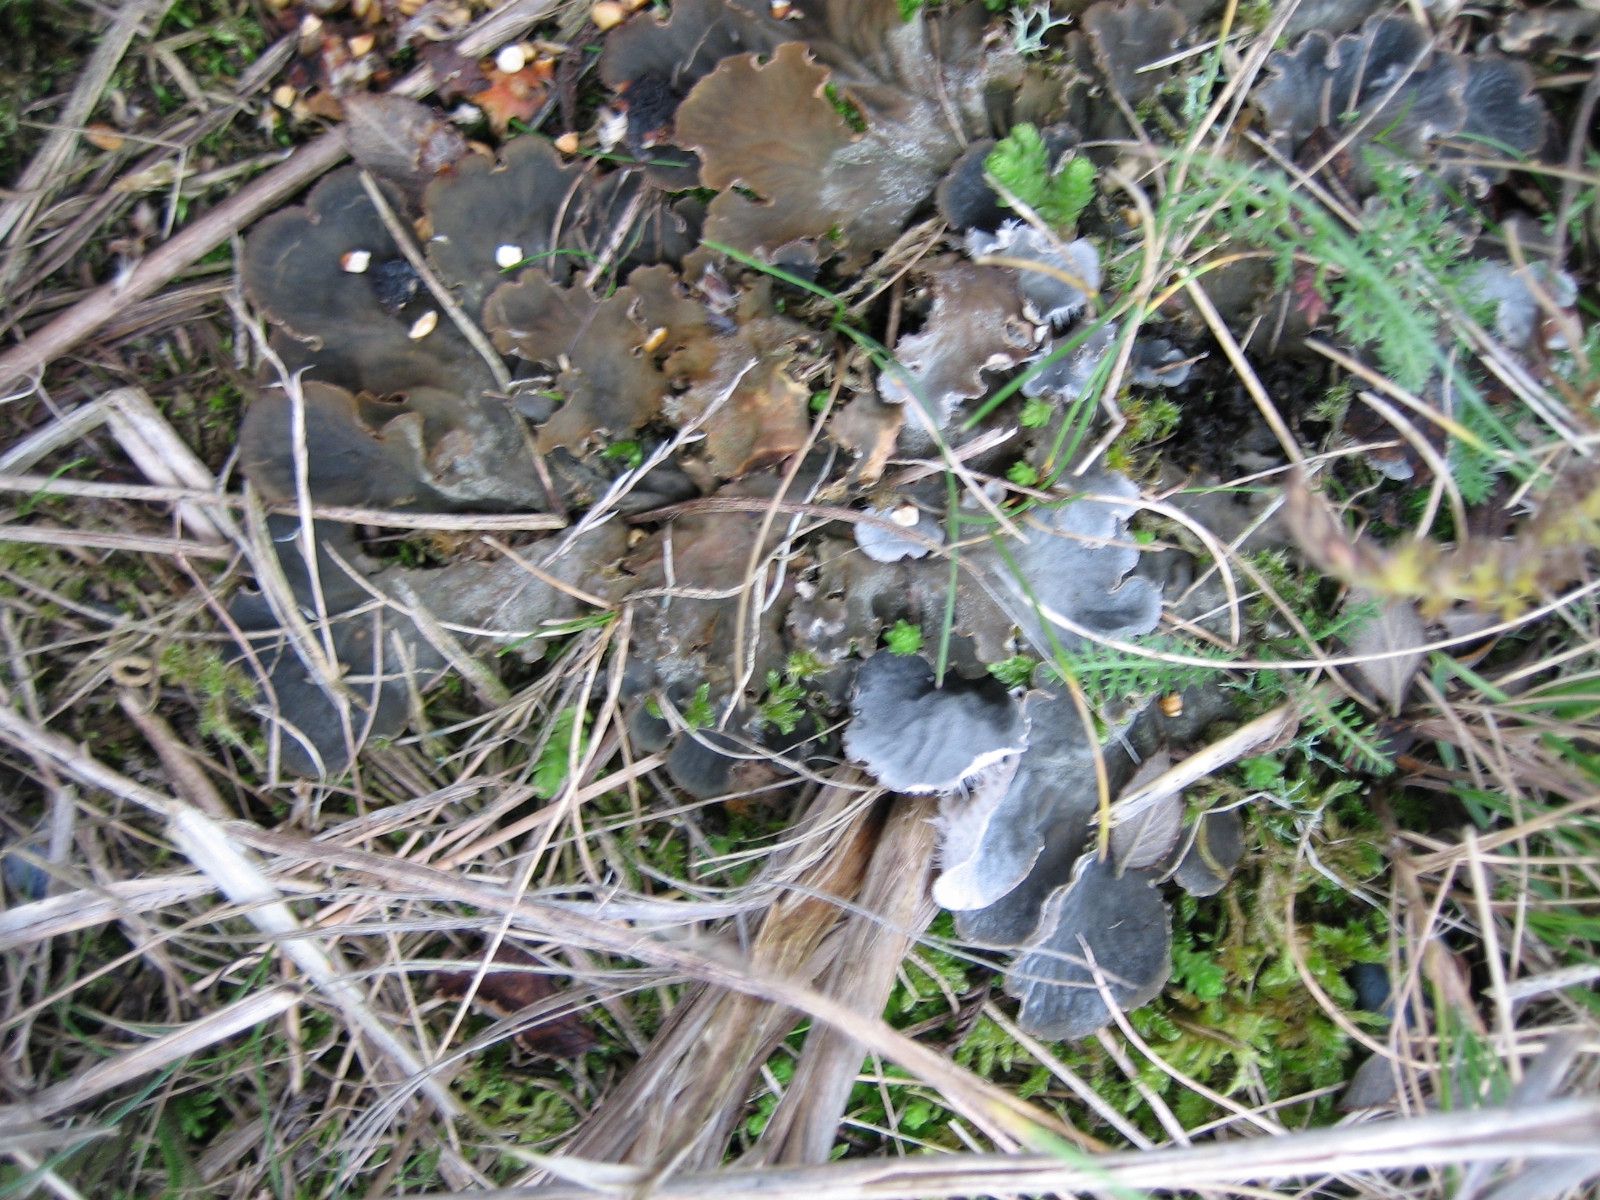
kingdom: Fungi
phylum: Ascomycota
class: Lecanoromycetes
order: Peltigerales
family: Peltigeraceae
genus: Peltigera
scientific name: Peltigera membranacea
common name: tynd skjoldlav
